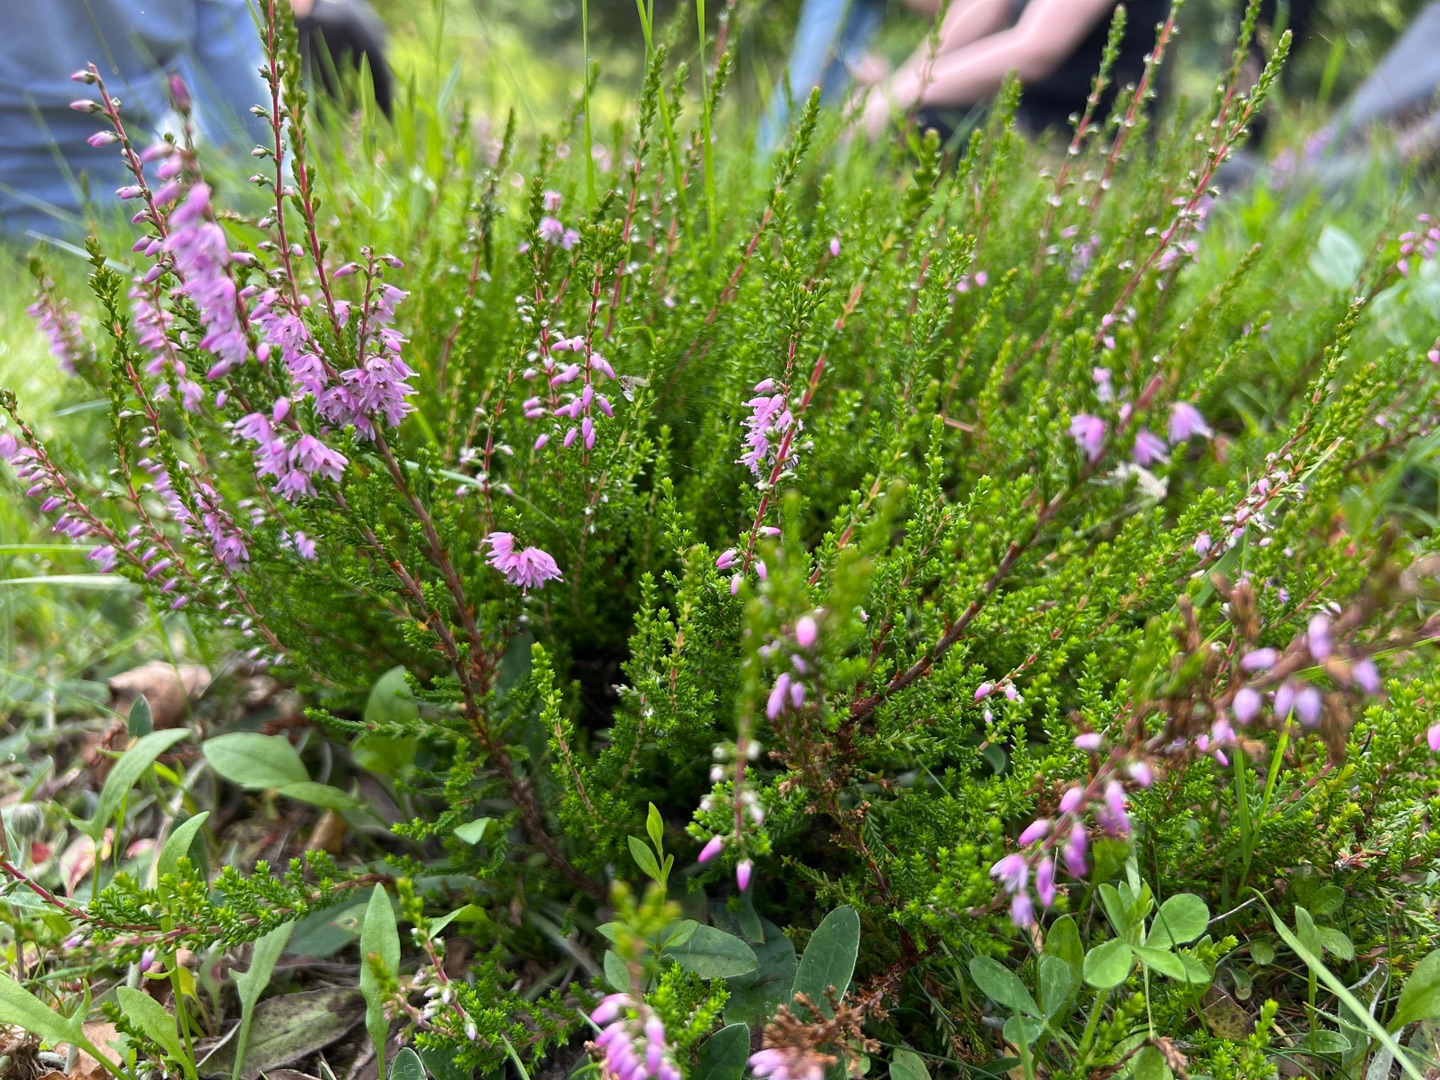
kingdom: Plantae
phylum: Tracheophyta
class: Magnoliopsida
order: Ericales
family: Ericaceae
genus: Calluna
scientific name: Calluna vulgaris
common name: Hedelyng
